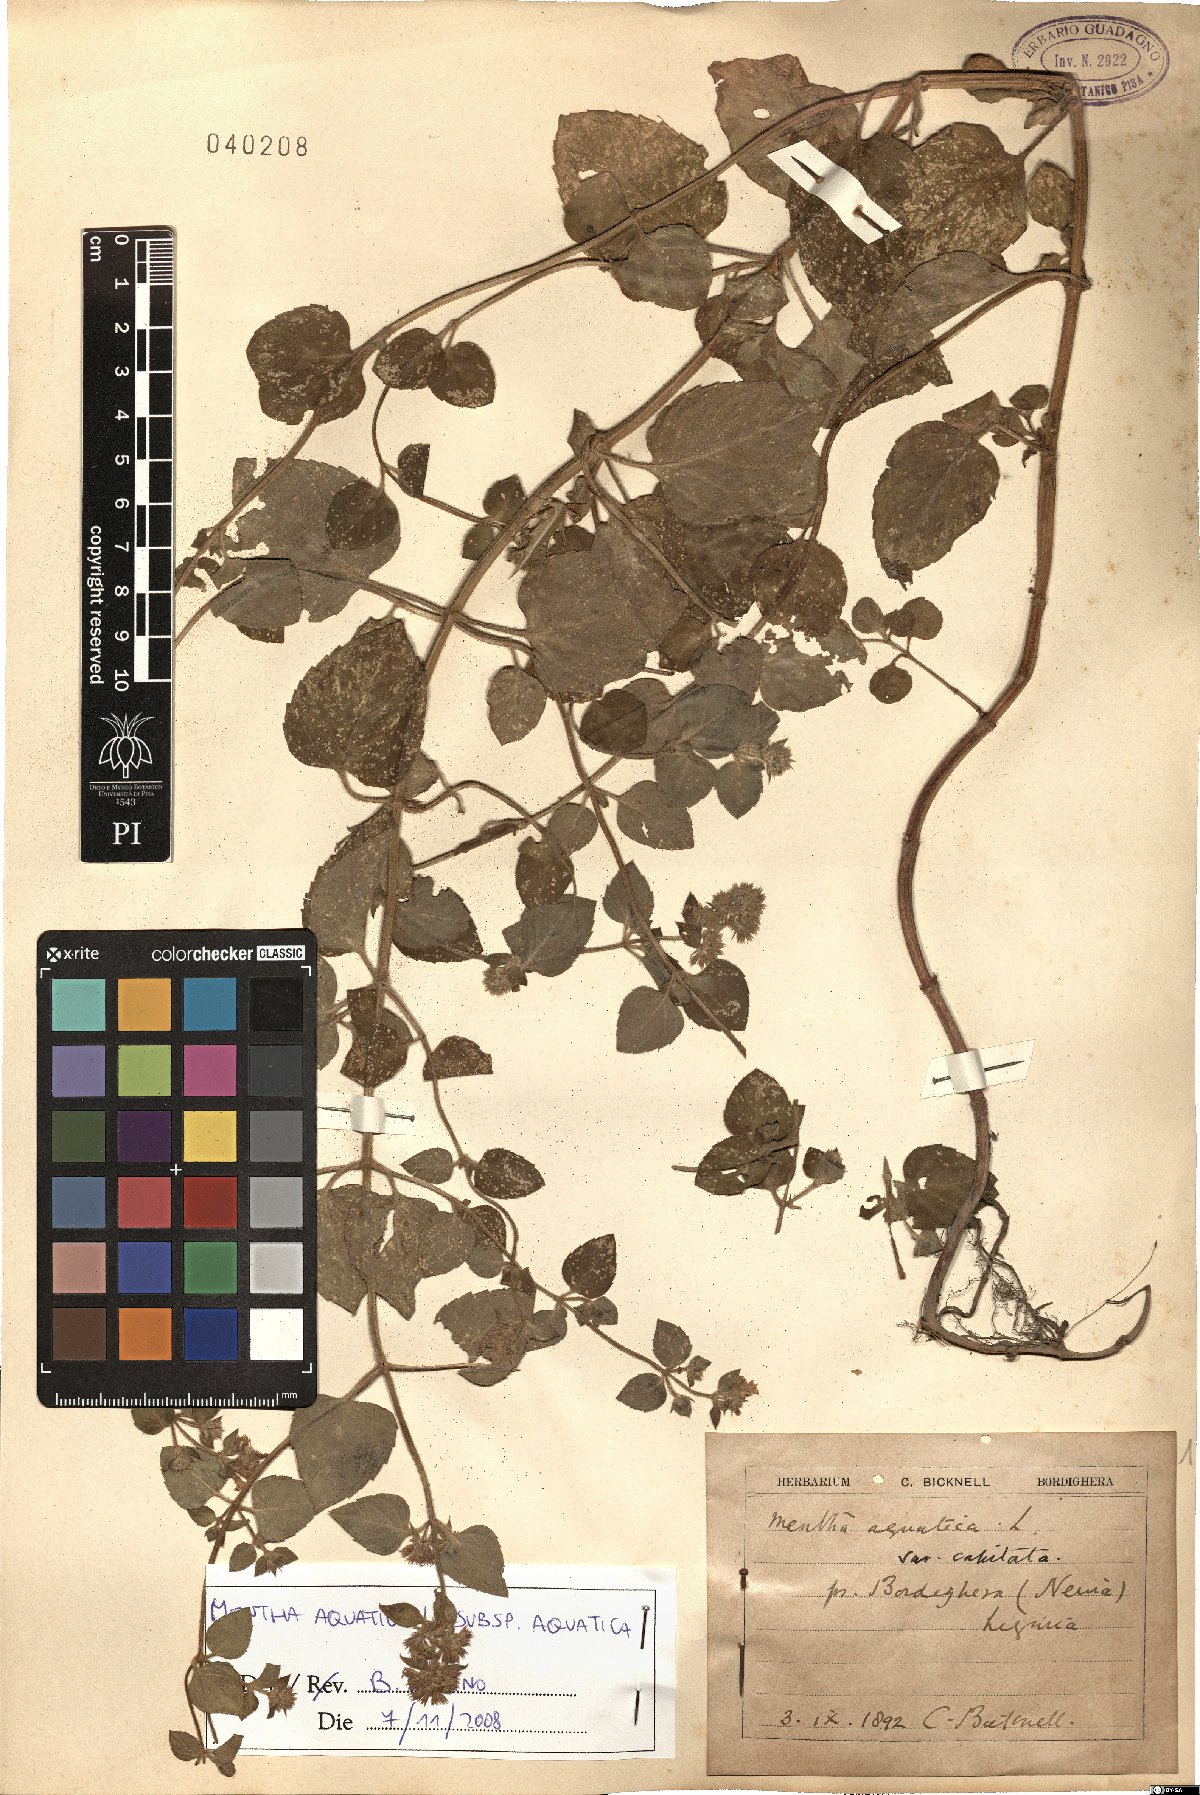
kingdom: Plantae
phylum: Tracheophyta
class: Magnoliopsida
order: Lamiales
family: Lamiaceae
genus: Mentha
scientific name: Mentha aquatica
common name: Water mint
